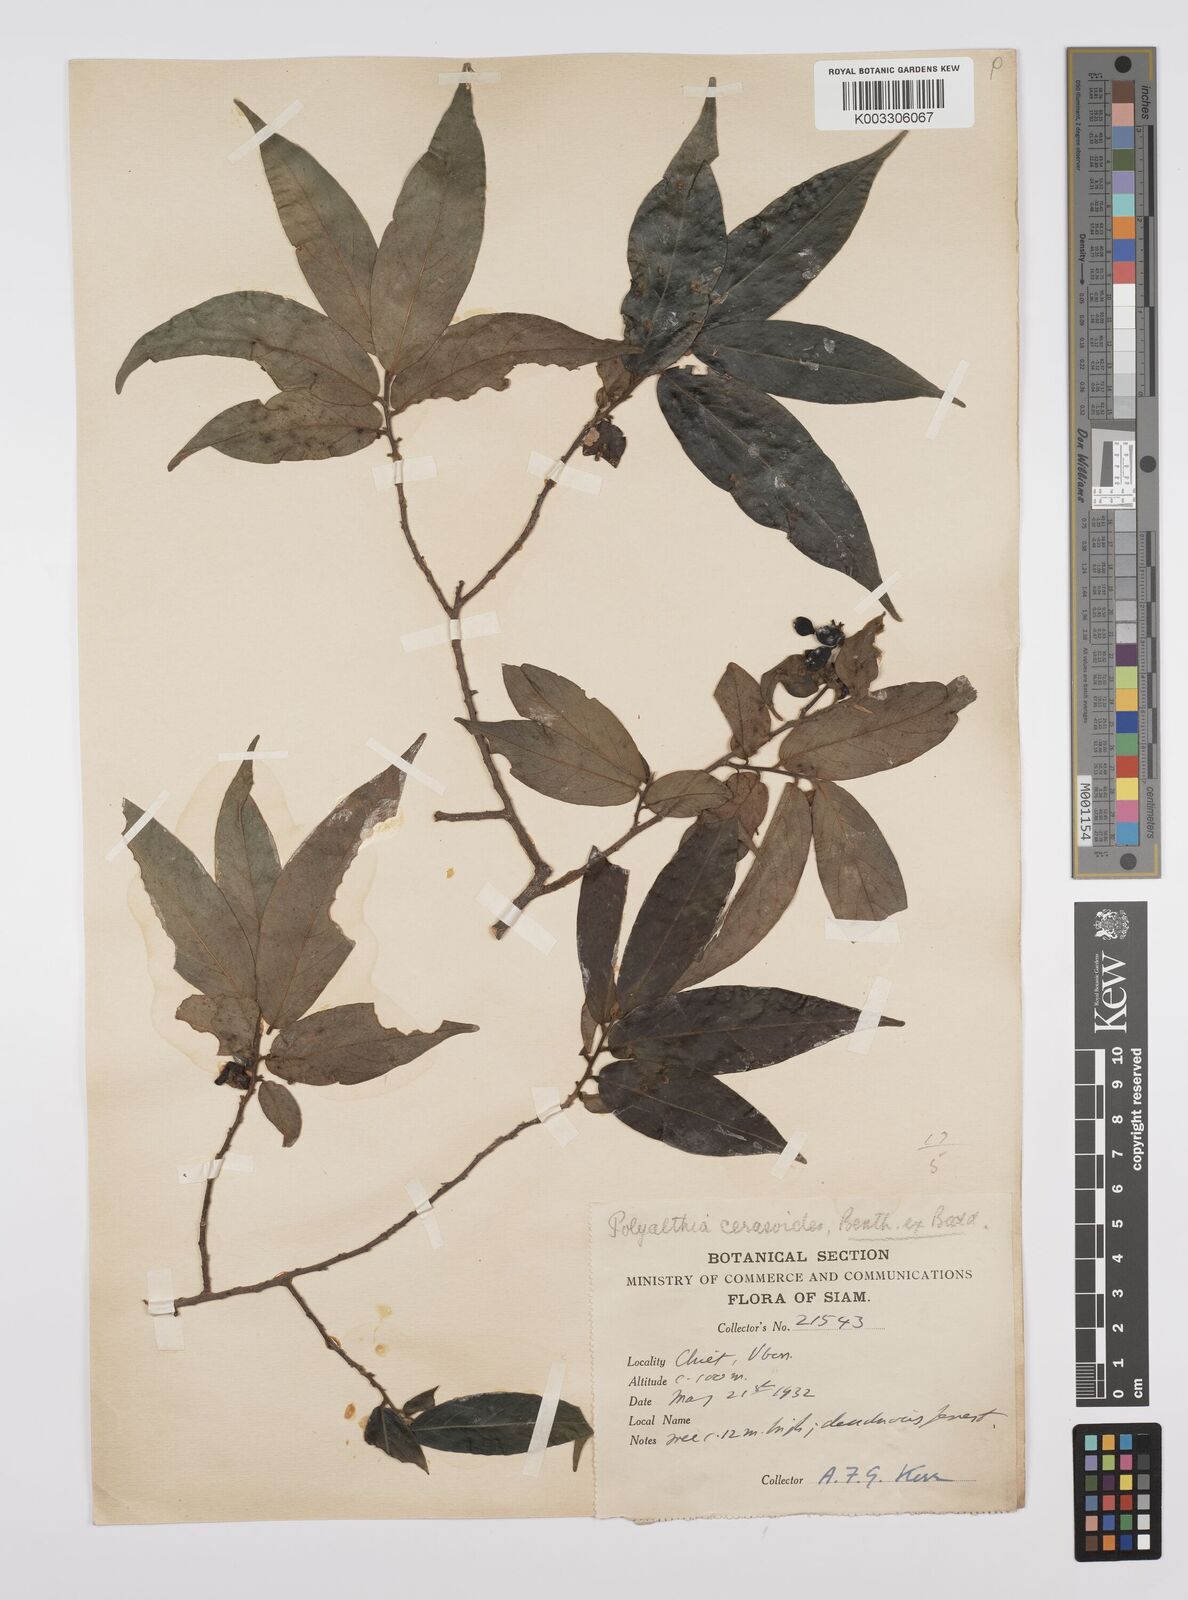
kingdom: Plantae
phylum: Tracheophyta
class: Magnoliopsida
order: Magnoliales
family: Annonaceae
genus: Hubera
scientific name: Hubera cerasoides
